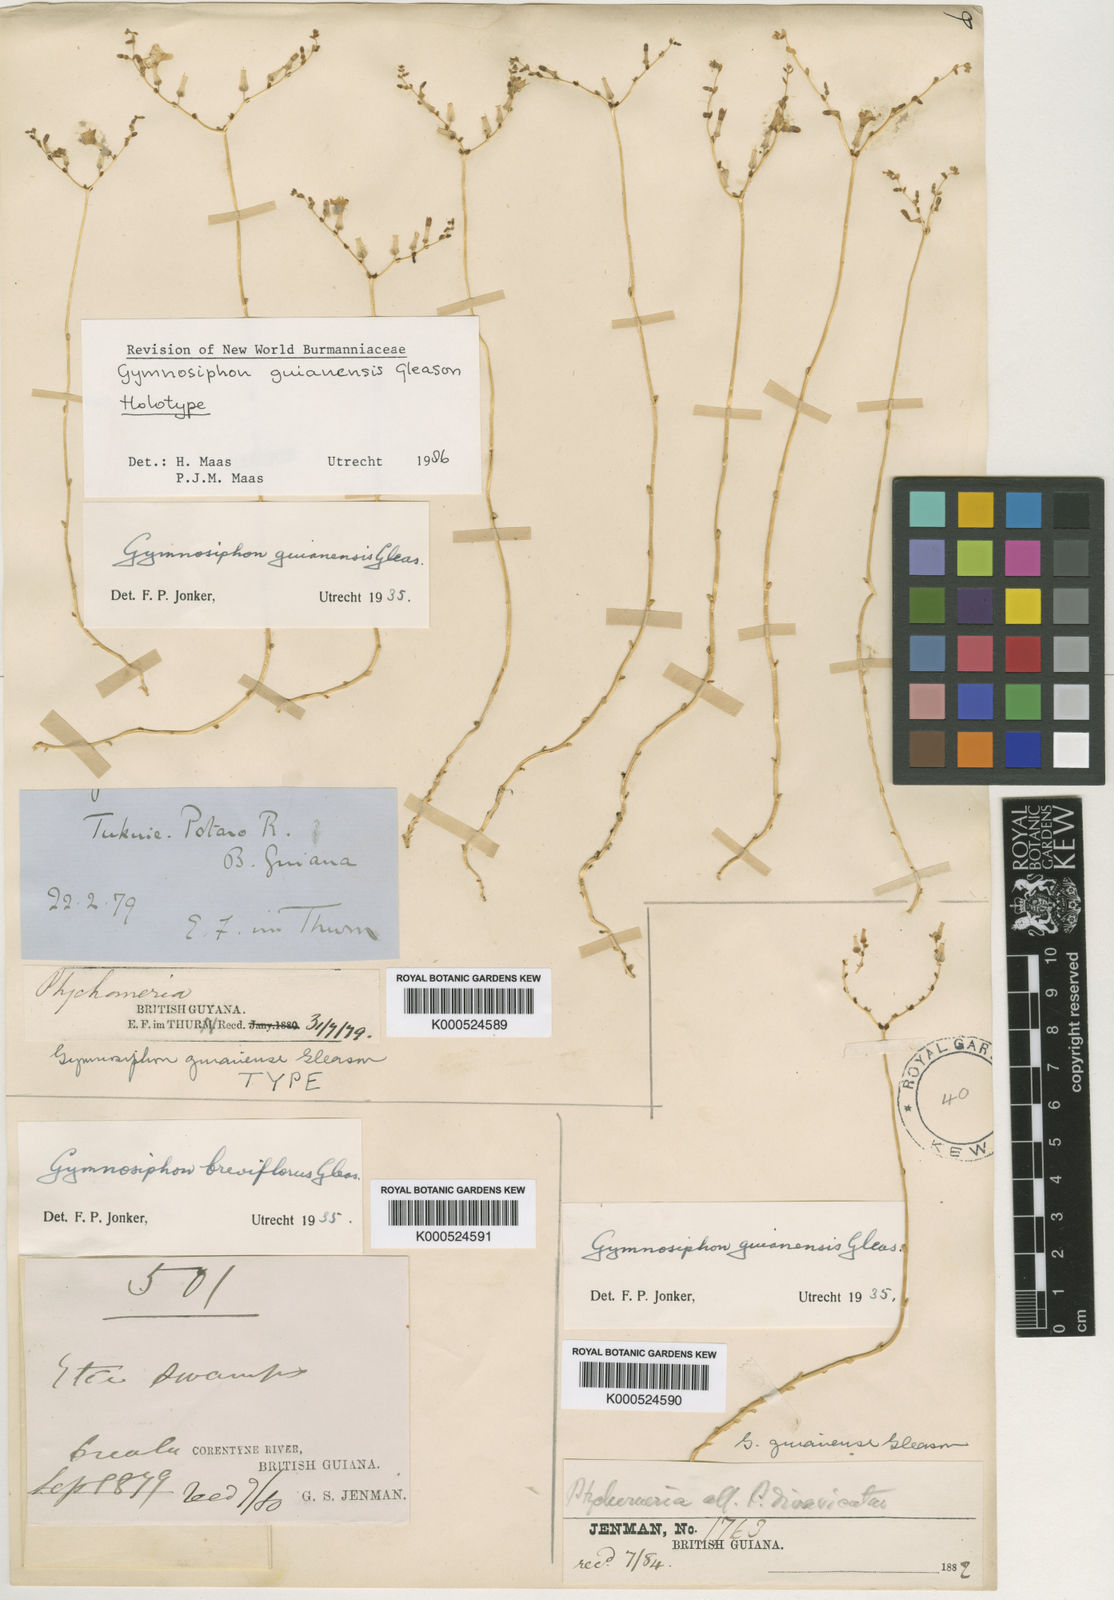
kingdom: Plantae
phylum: Tracheophyta
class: Liliopsida
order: Dioscoreales
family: Burmanniaceae
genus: Gymnosiphon
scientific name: Gymnosiphon guianensis
